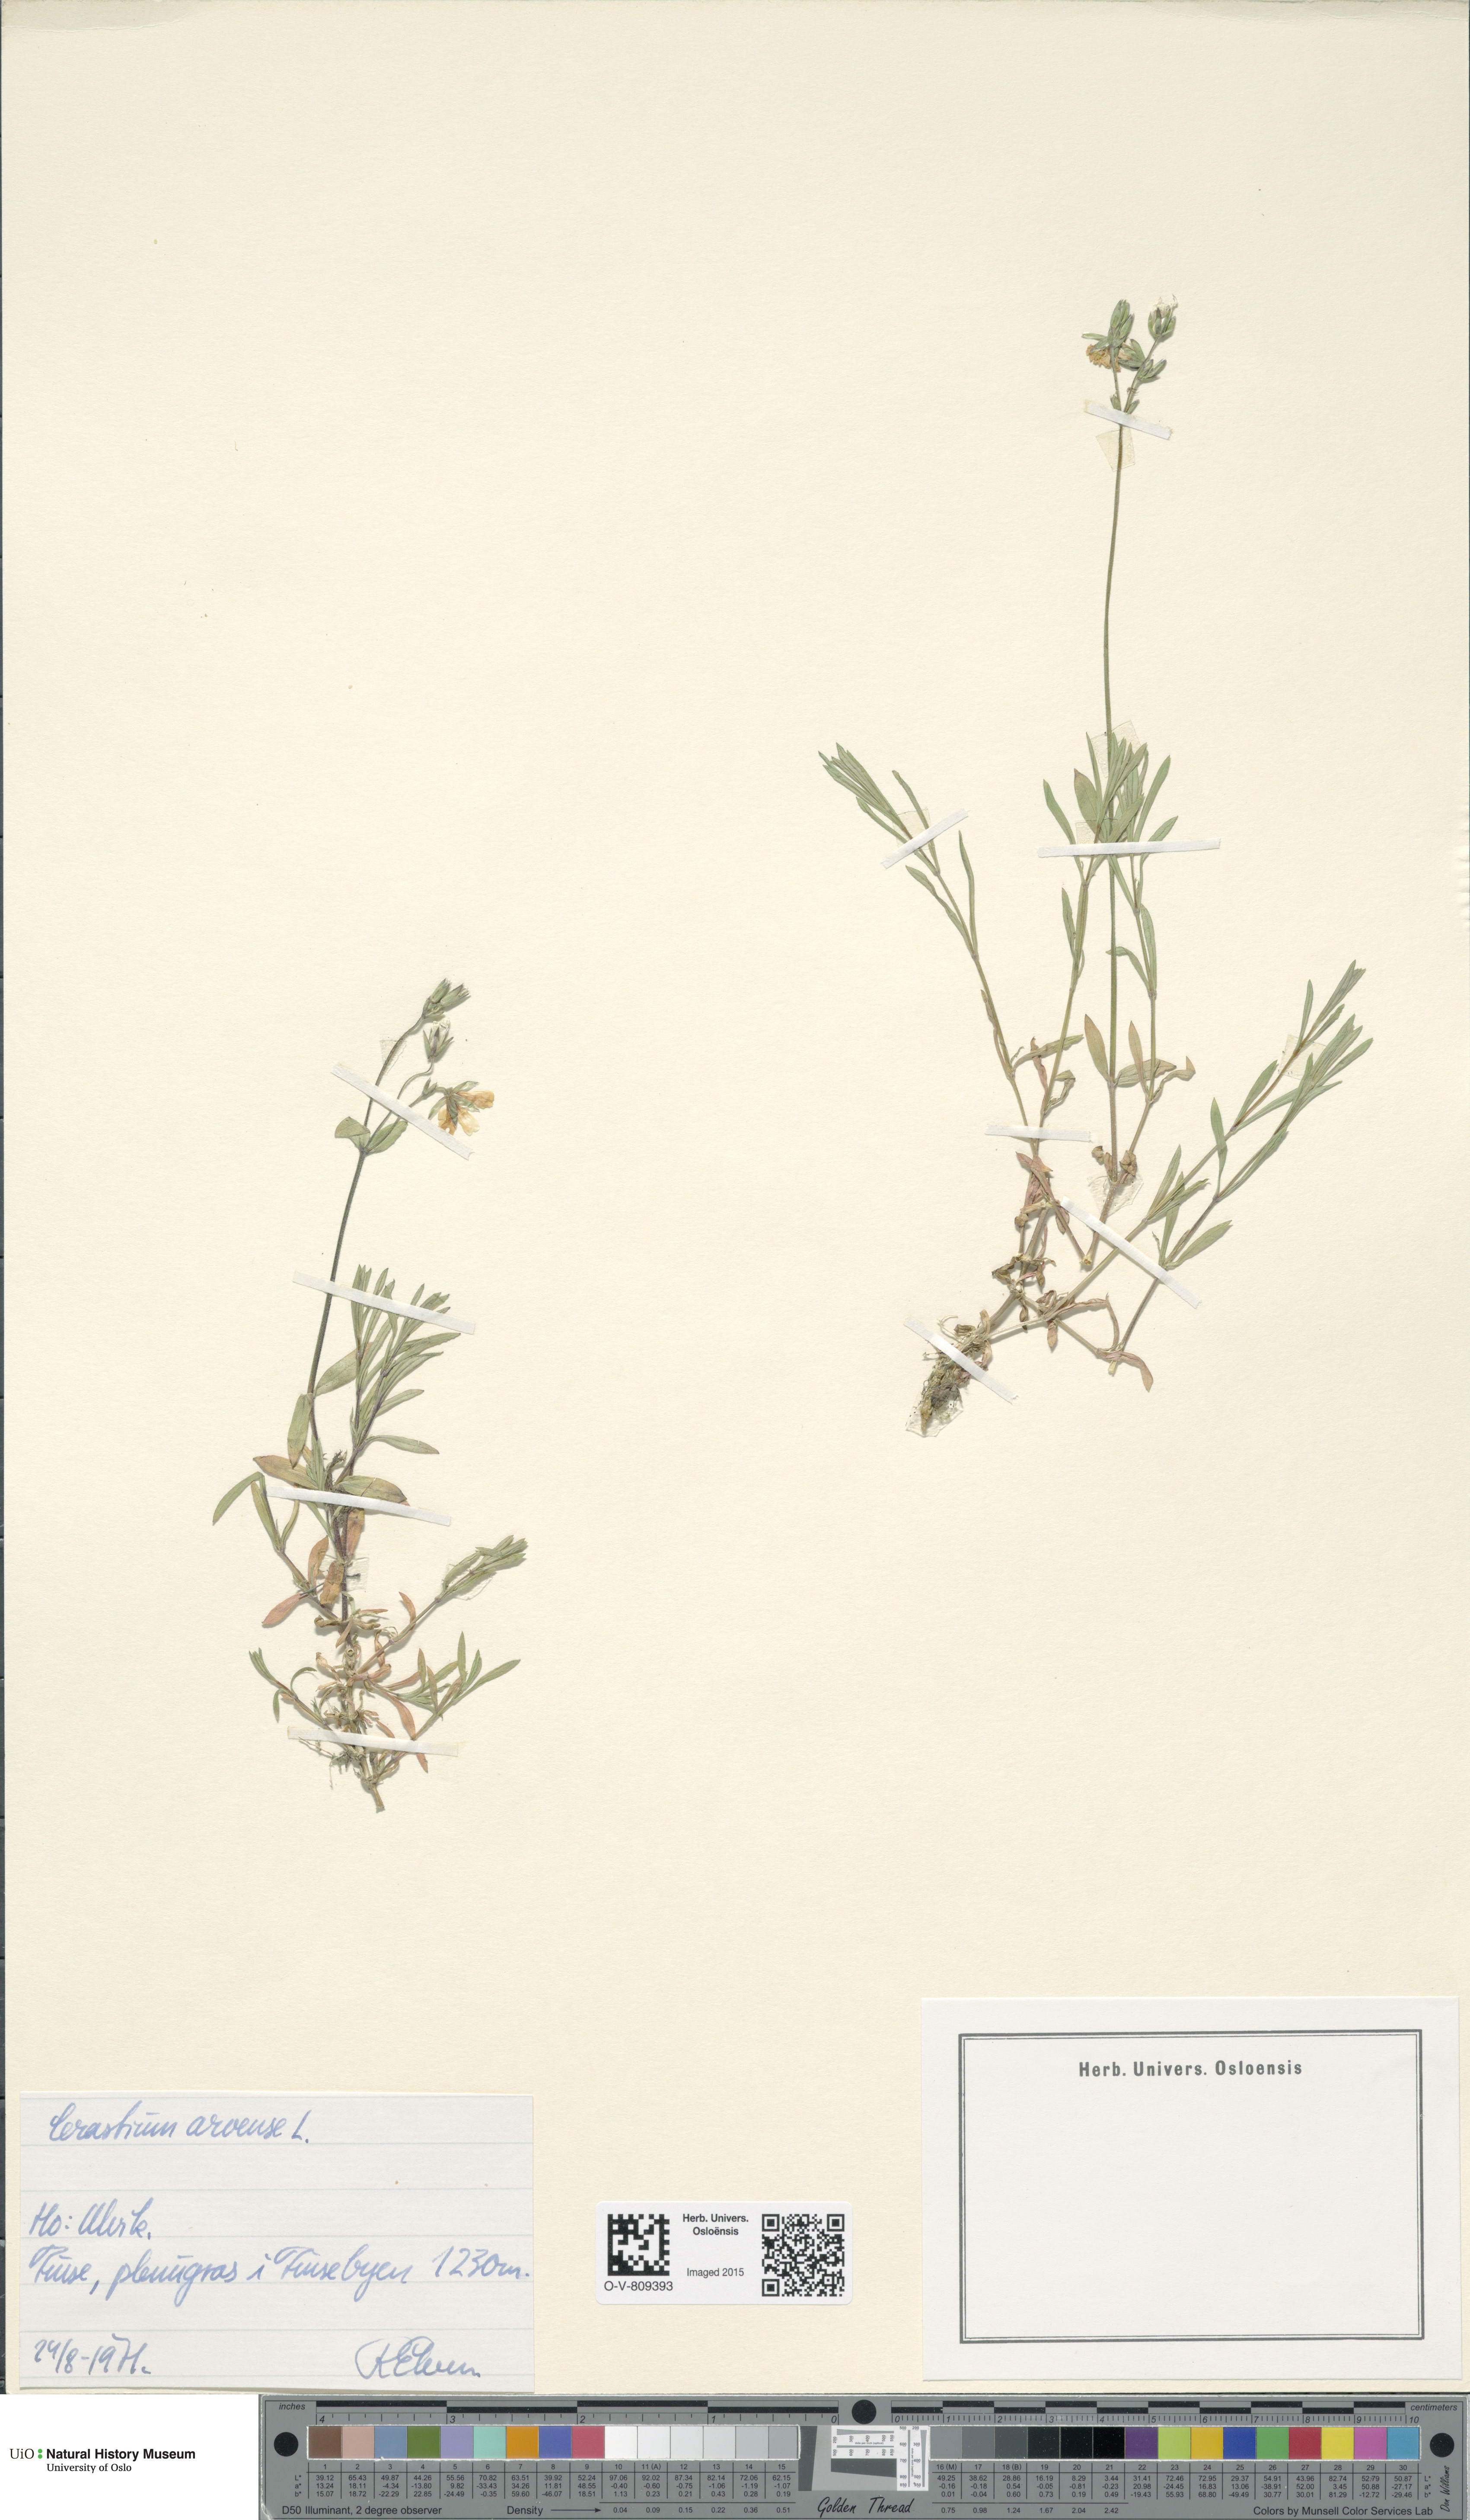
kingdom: Plantae
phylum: Tracheophyta
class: Magnoliopsida
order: Caryophyllales
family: Caryophyllaceae
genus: Cerastium
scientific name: Cerastium arvense
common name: Field mouse-ear
